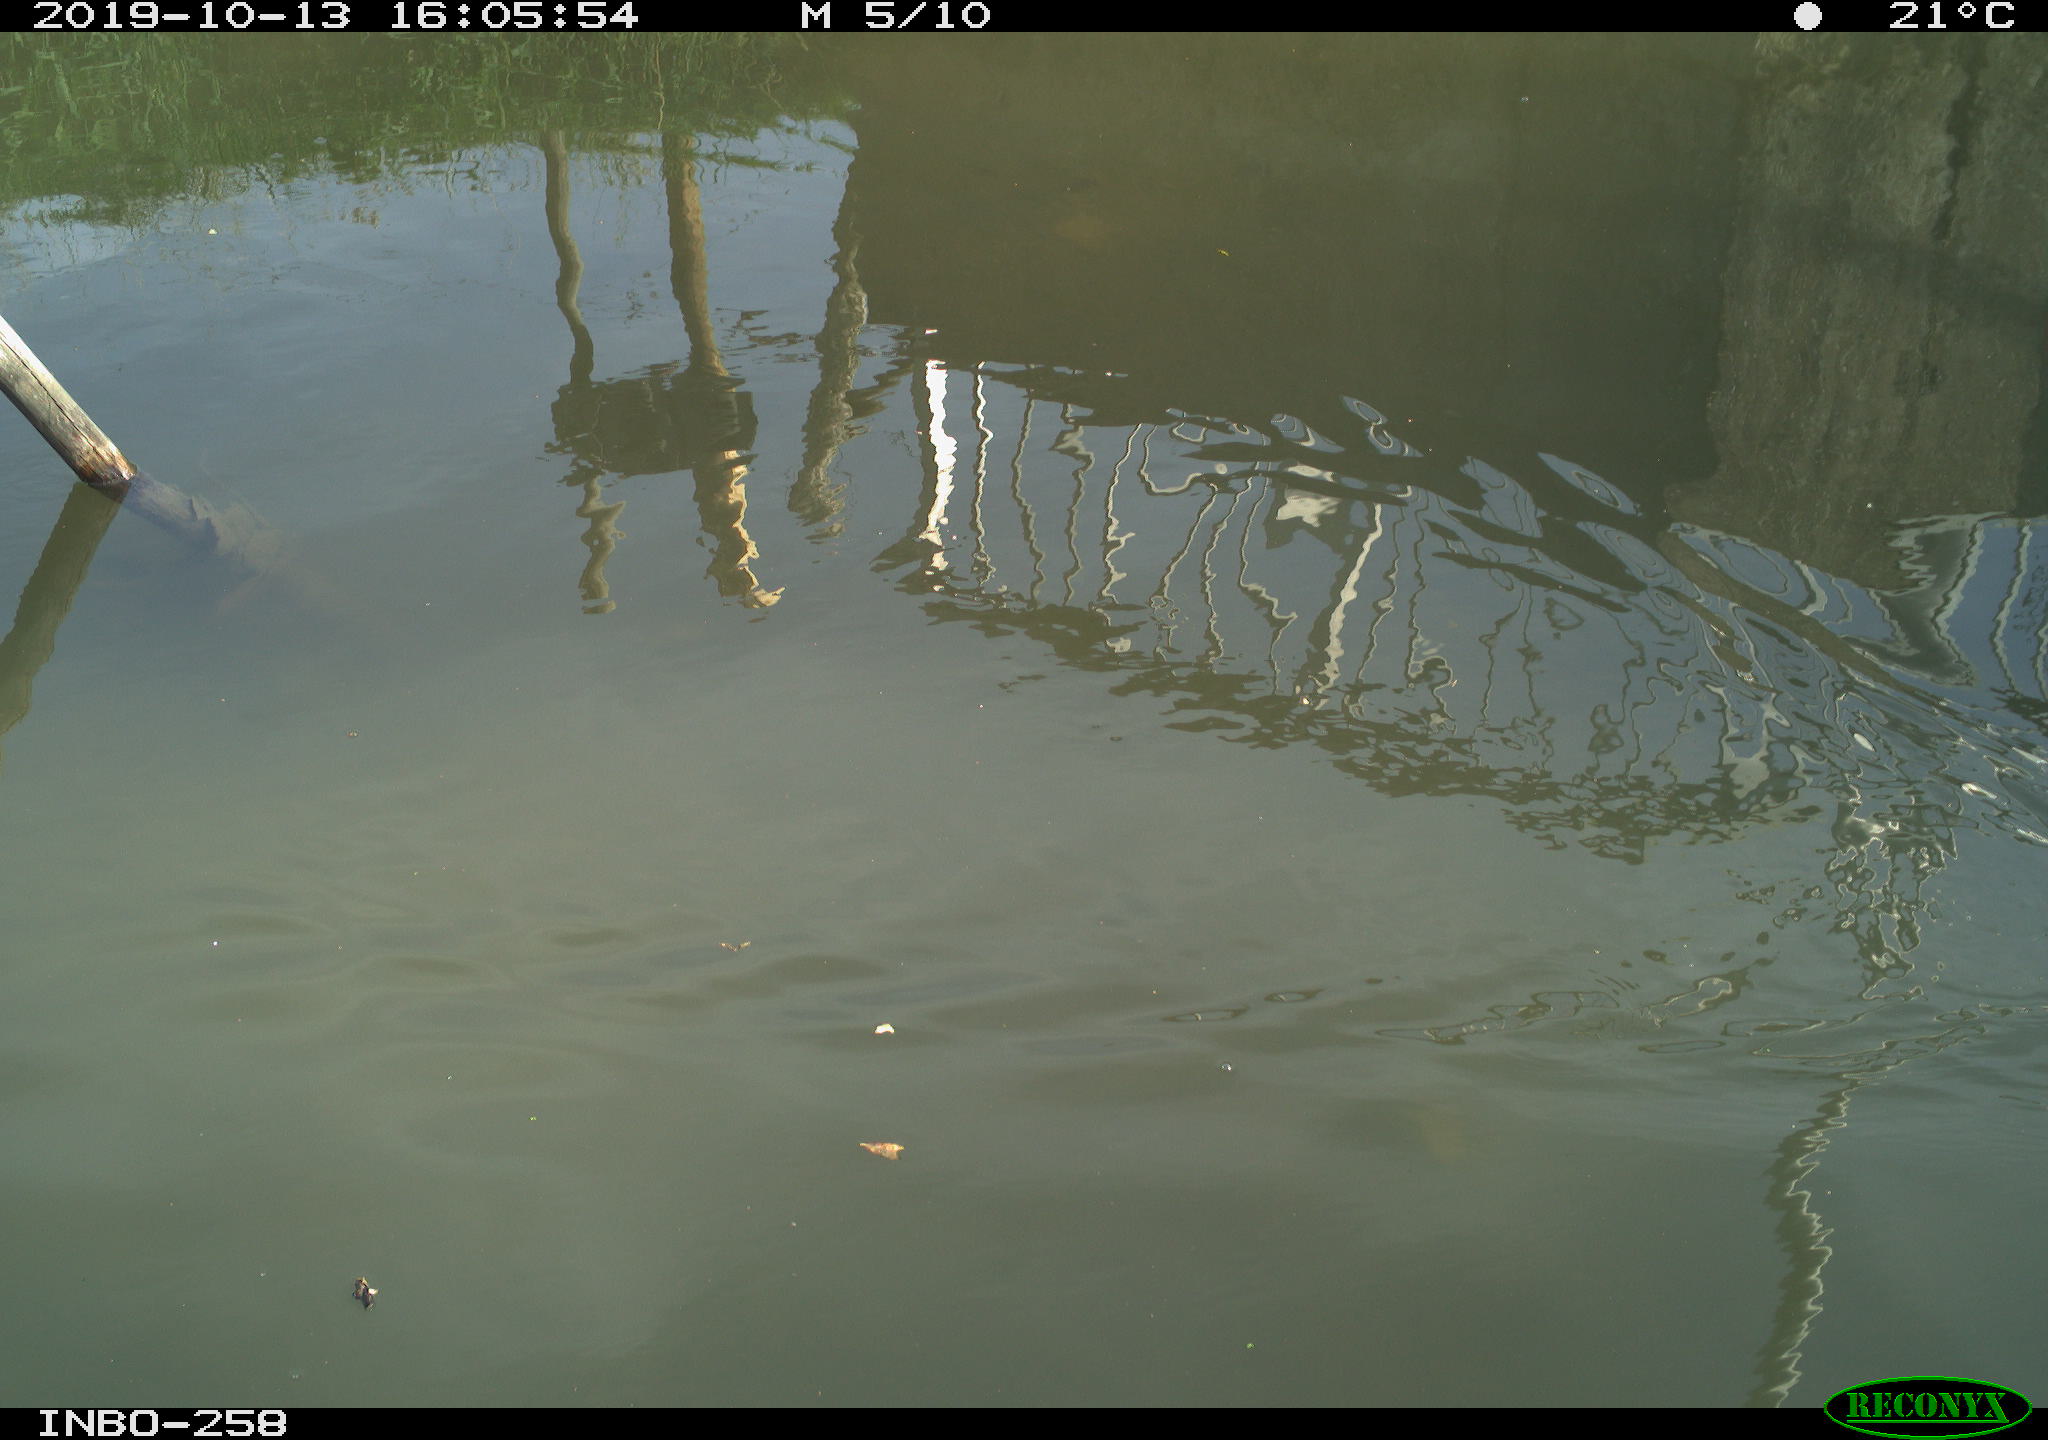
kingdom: Animalia
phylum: Chordata
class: Aves
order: Gruiformes
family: Rallidae
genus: Gallinula
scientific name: Gallinula chloropus
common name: Common moorhen
